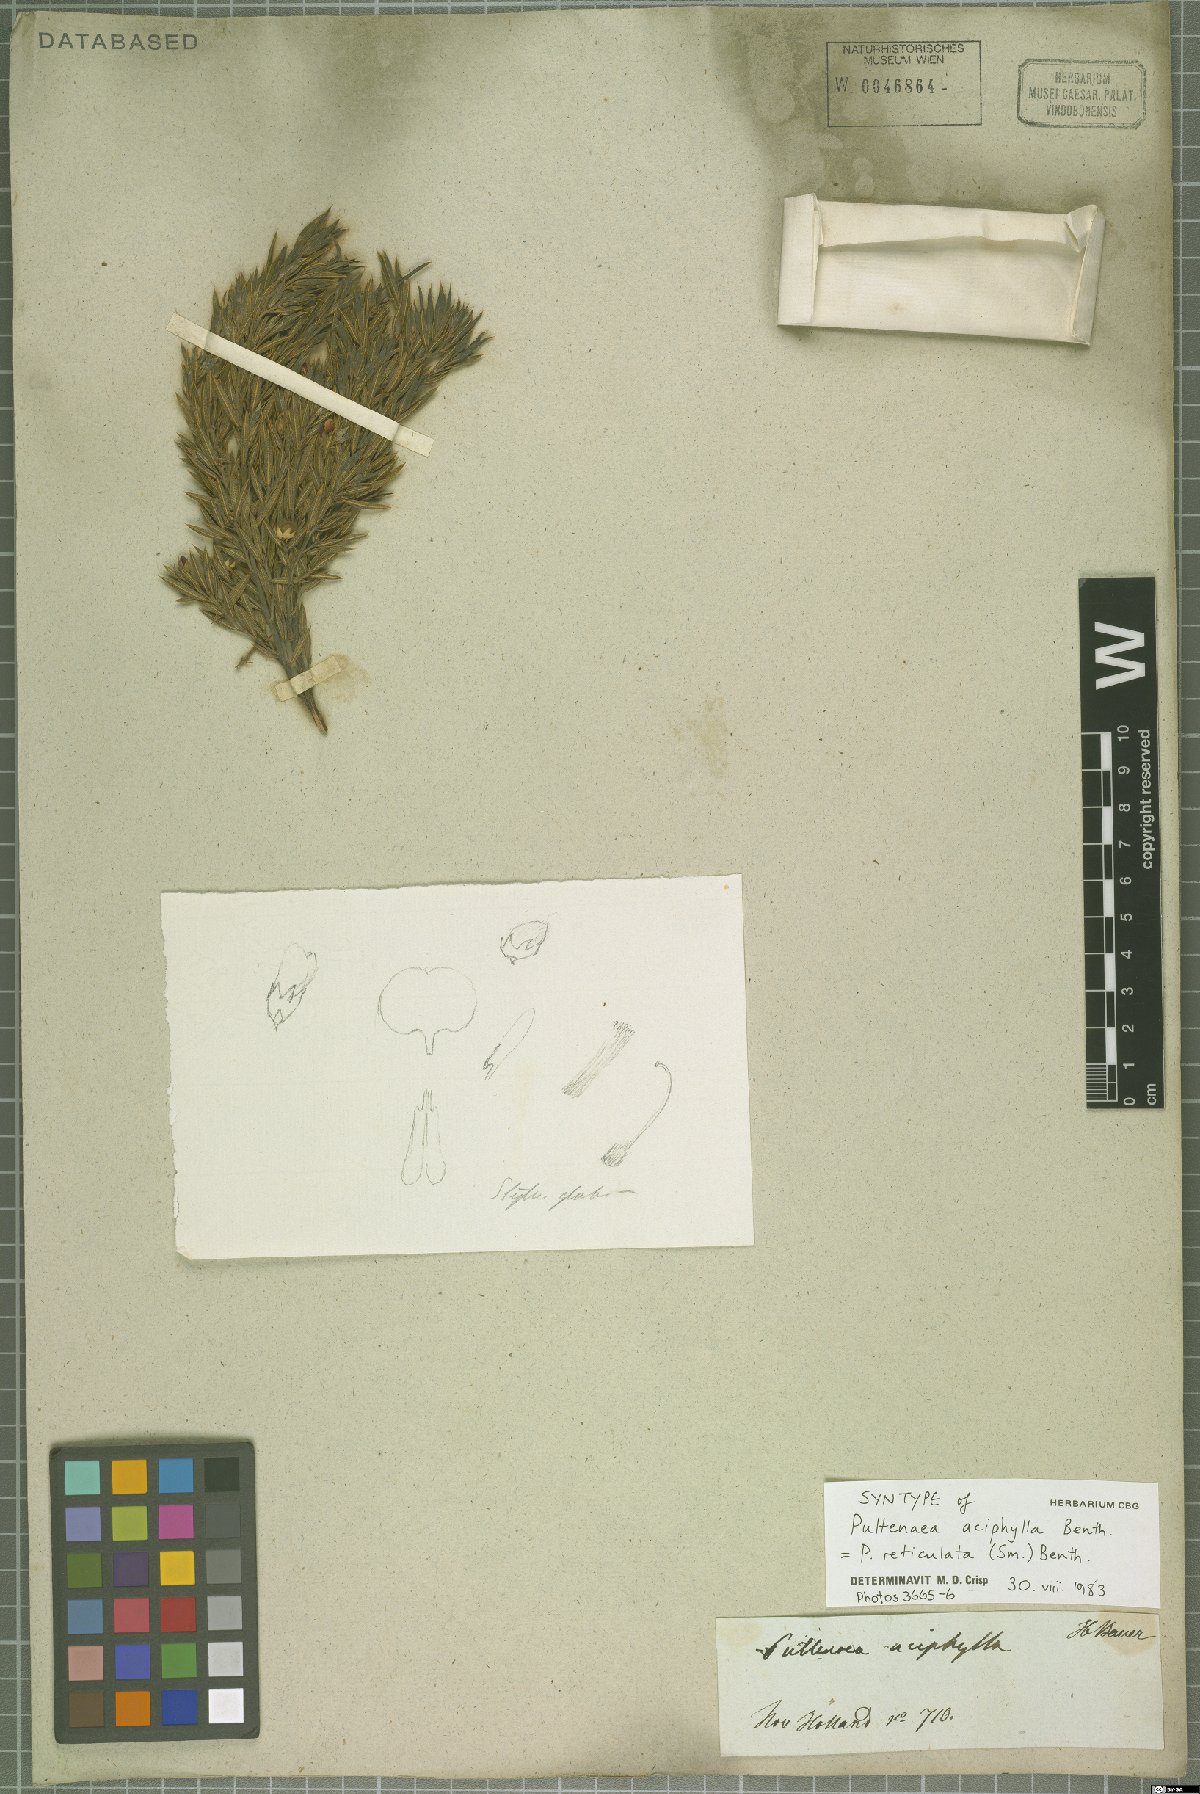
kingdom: Plantae
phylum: Tracheophyta
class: Magnoliopsida
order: Fabales
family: Fabaceae
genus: Pultenaea
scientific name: Pultenaea reticulata
